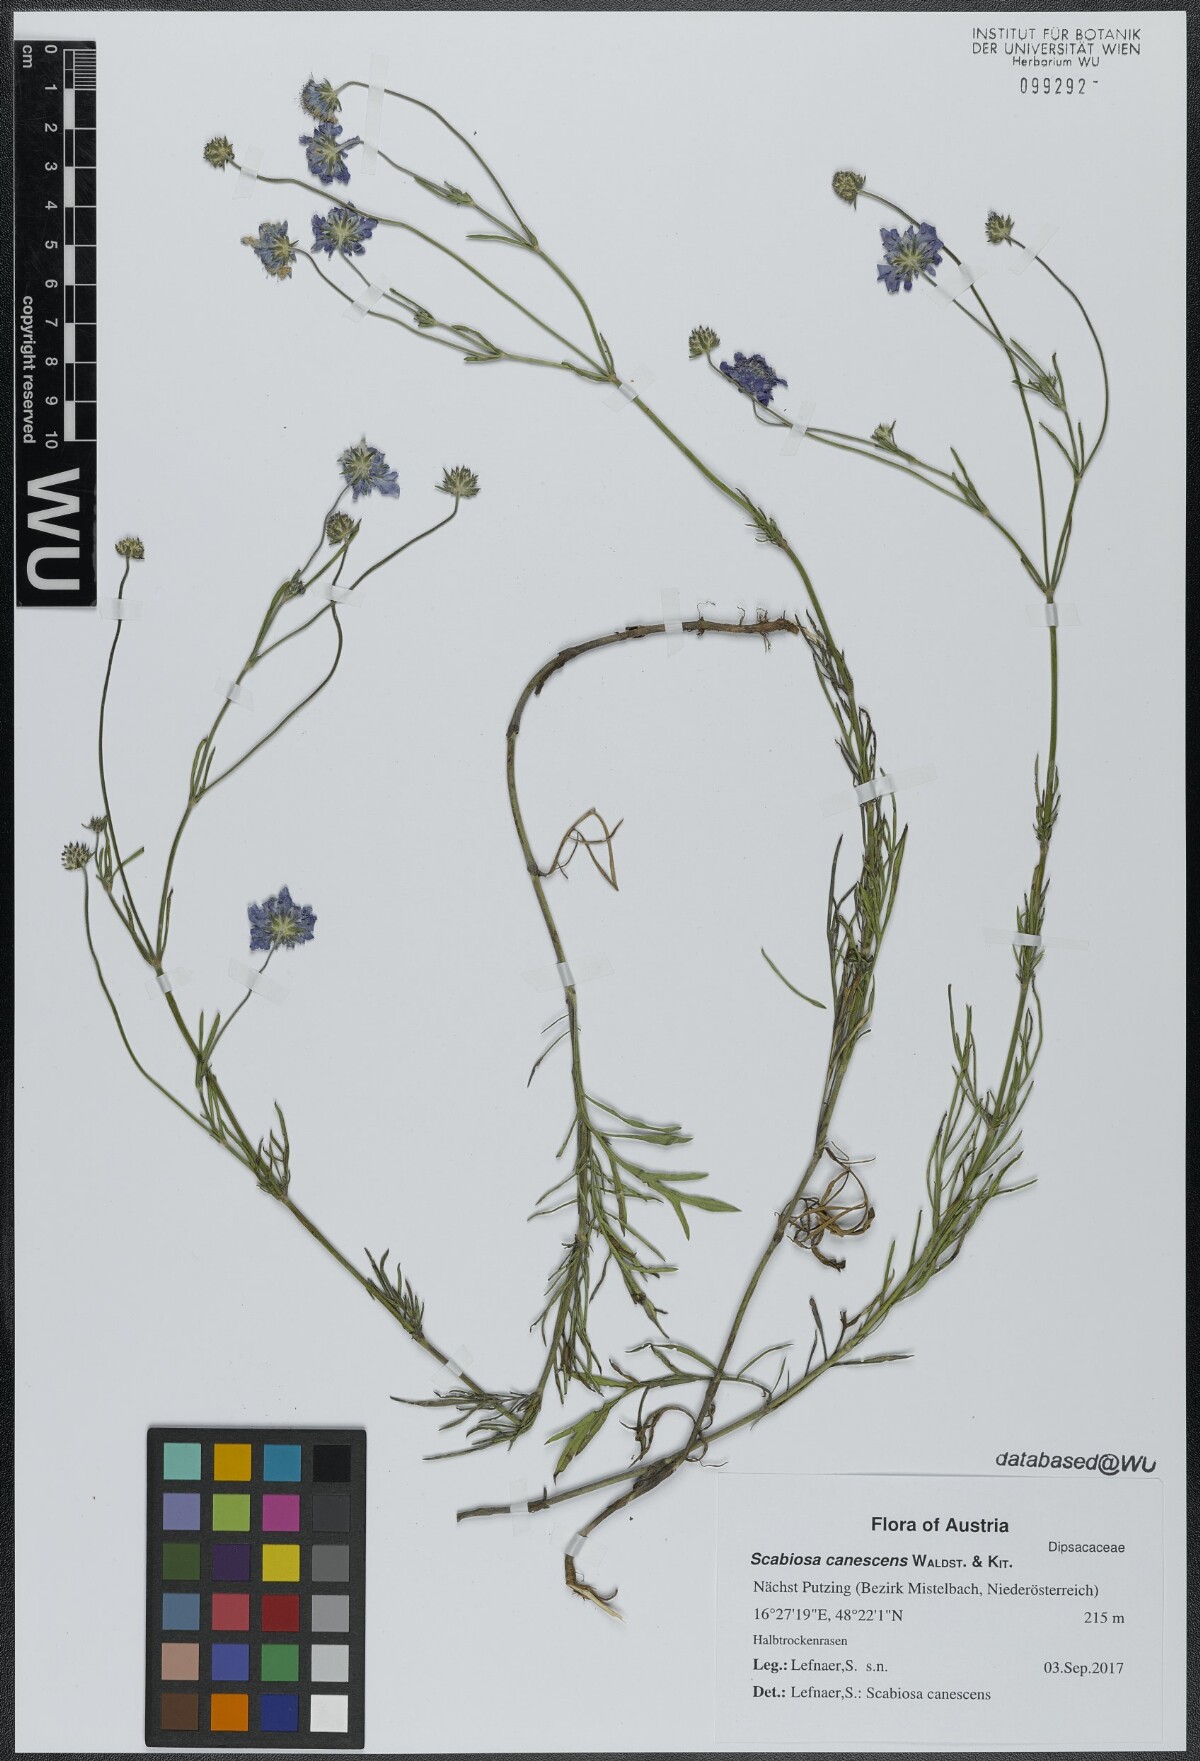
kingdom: Plantae
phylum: Tracheophyta
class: Magnoliopsida
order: Dipsacales
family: Caprifoliaceae
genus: Scabiosa
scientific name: Scabiosa canescens
